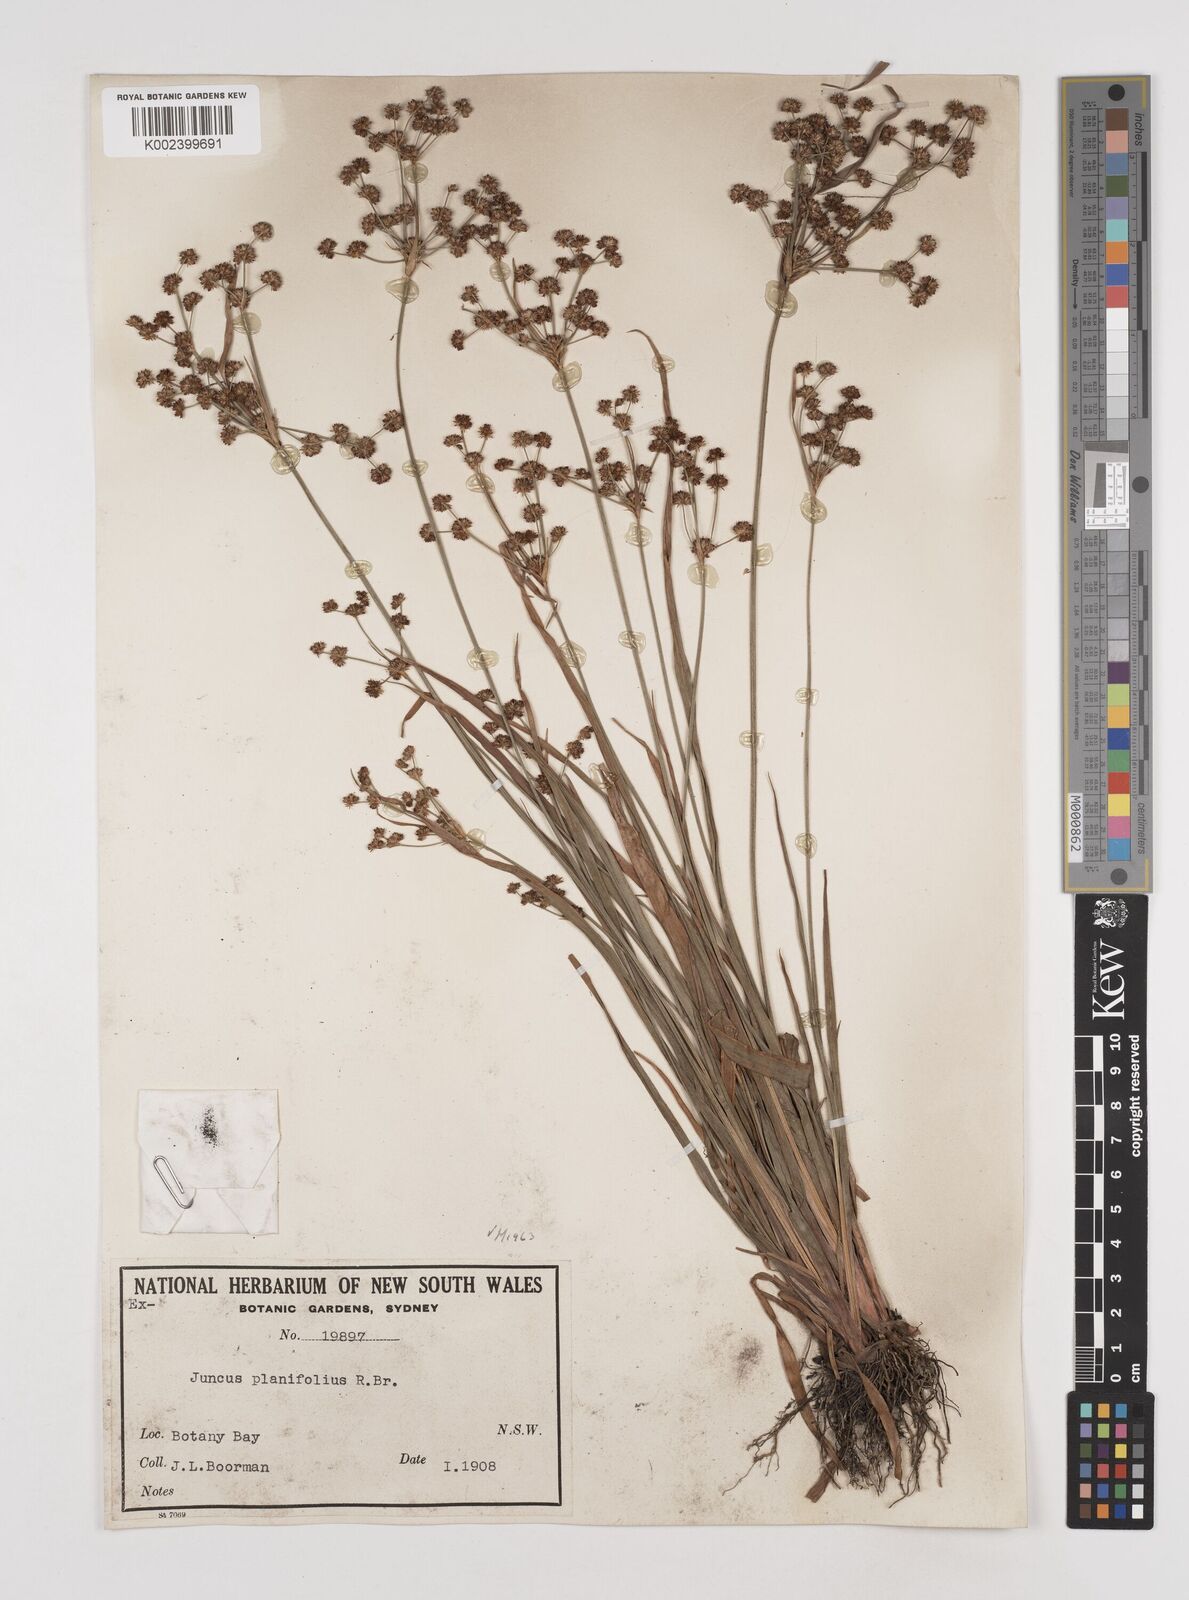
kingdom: Plantae
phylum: Tracheophyta
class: Liliopsida
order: Poales
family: Juncaceae
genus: Juncus
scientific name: Juncus planifolius
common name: Broadleaf rush
